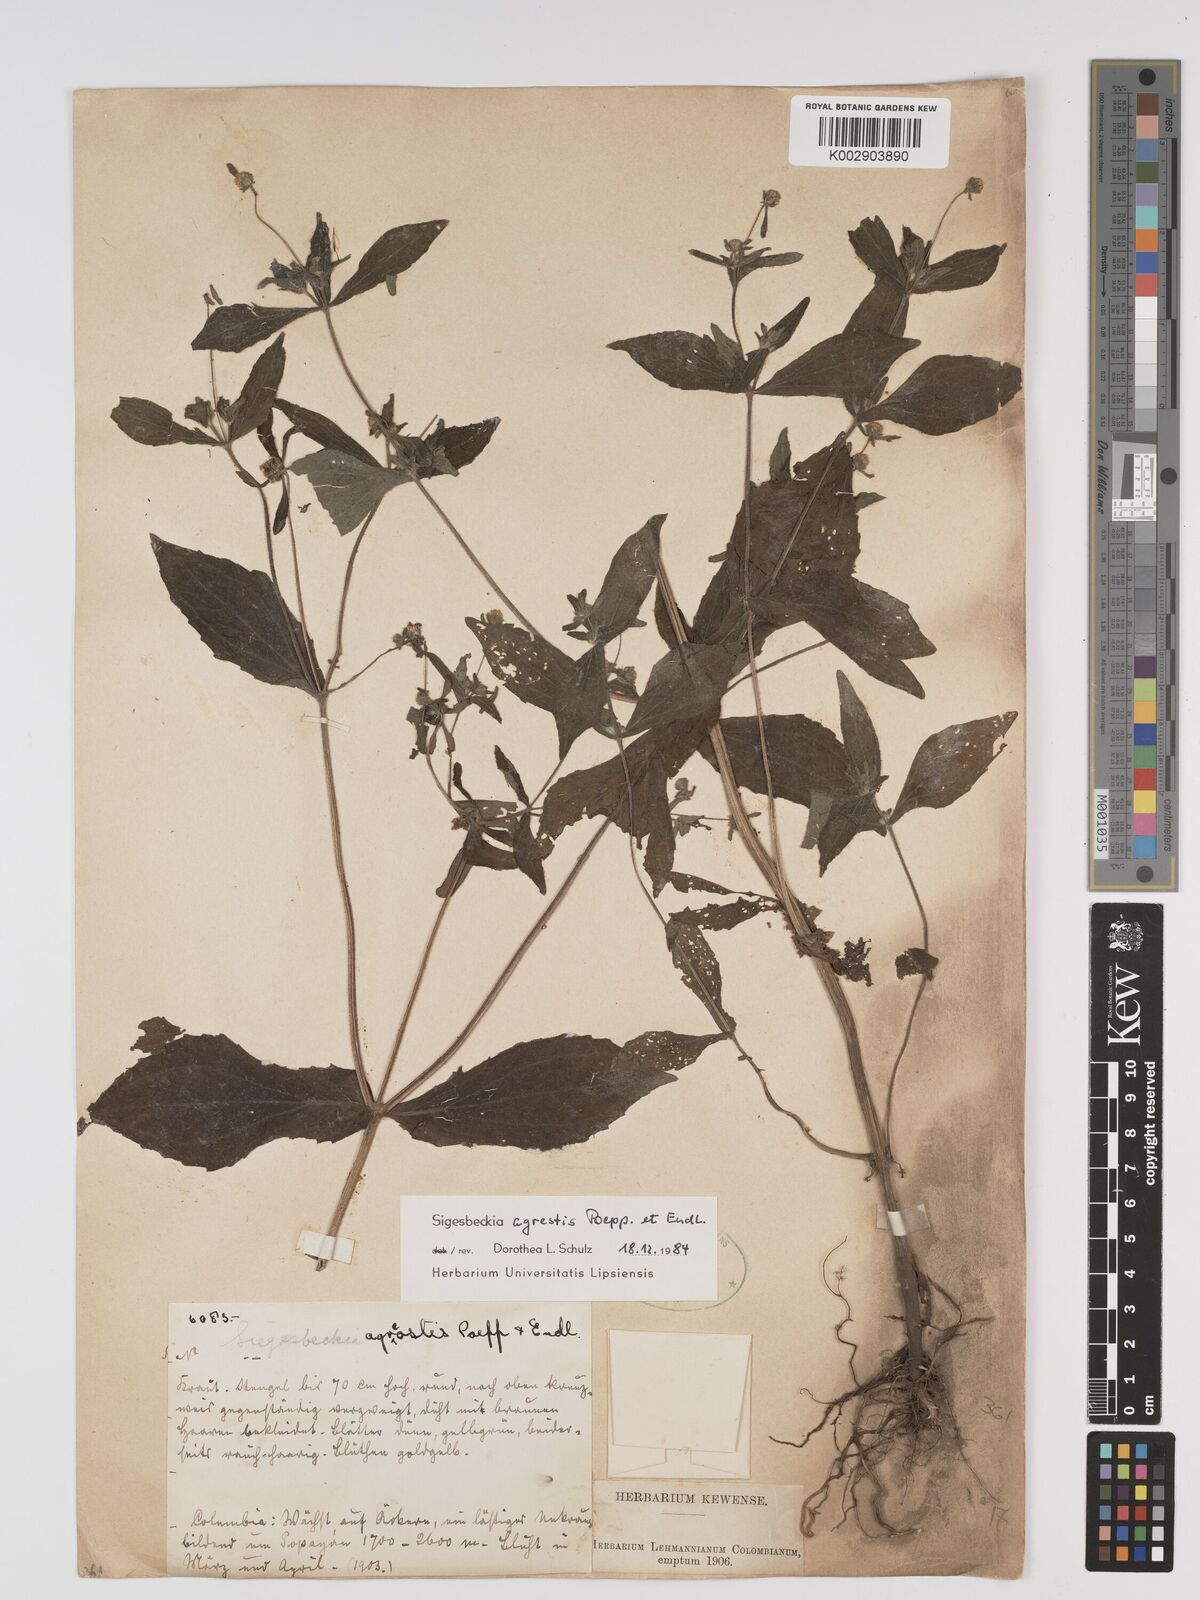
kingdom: Plantae
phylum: Tracheophyta
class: Magnoliopsida
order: Asterales
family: Asteraceae
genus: Sigesbeckia
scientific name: Sigesbeckia flosculosa
